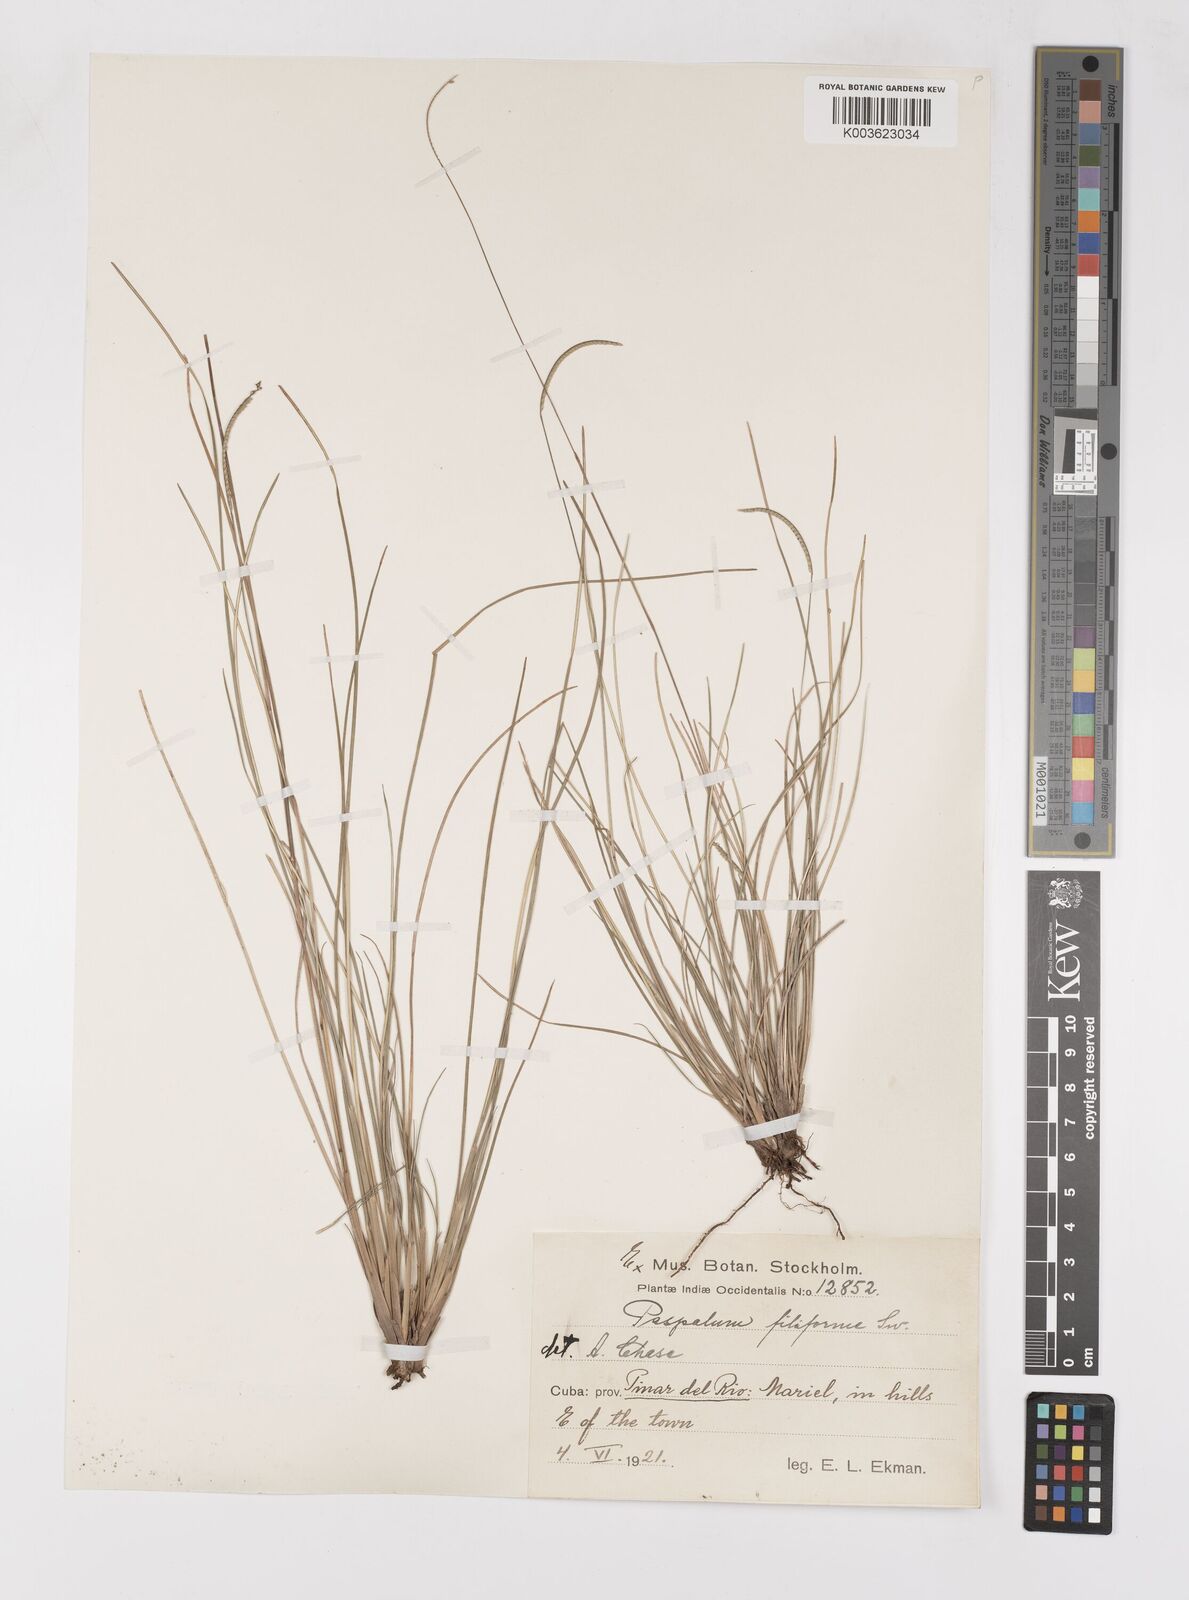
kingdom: Plantae
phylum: Tracheophyta
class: Liliopsida
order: Poales
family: Poaceae
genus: Paspalum
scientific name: Paspalum filiforme
